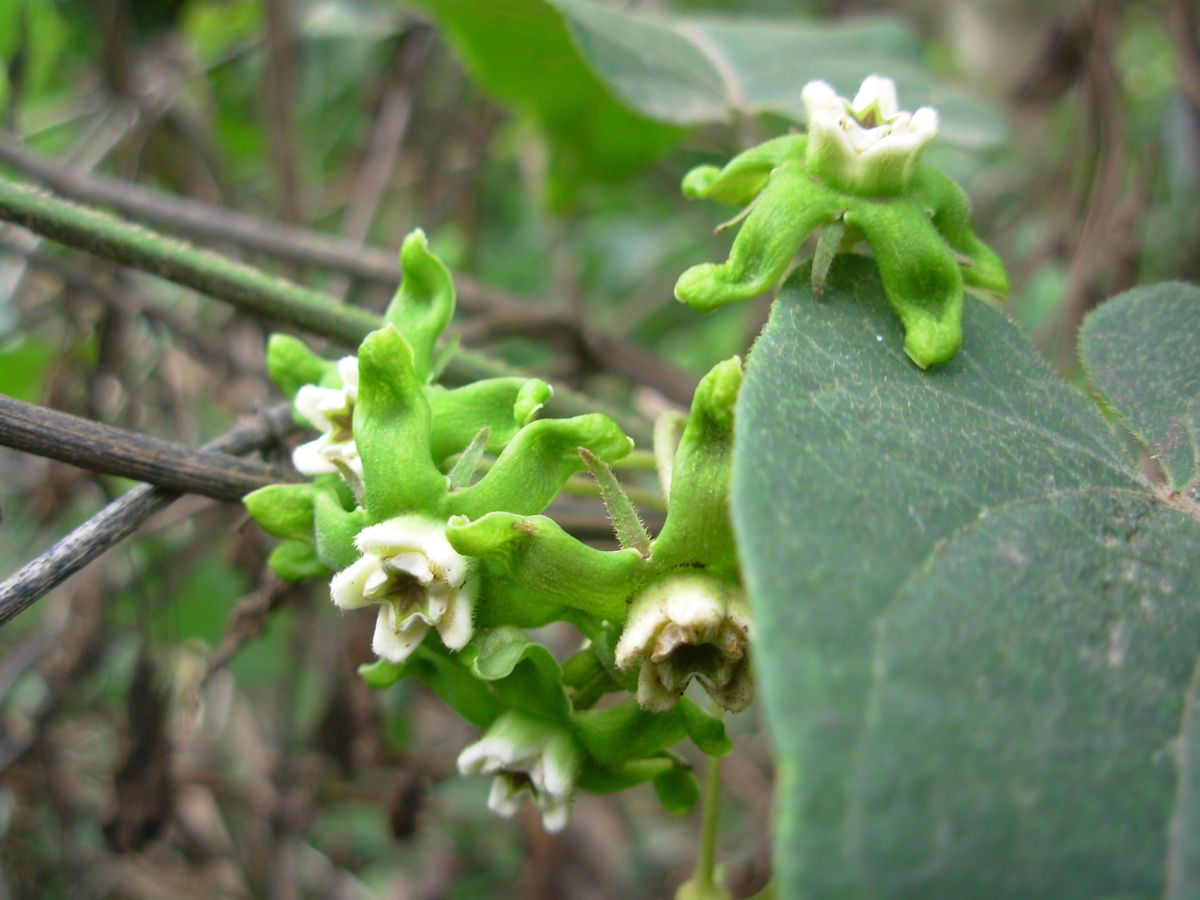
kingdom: Plantae
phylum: Tracheophyta
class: Magnoliopsida
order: Gentianales
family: Apocynaceae
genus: Gonolobus
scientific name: Gonolobus lasiostemma
